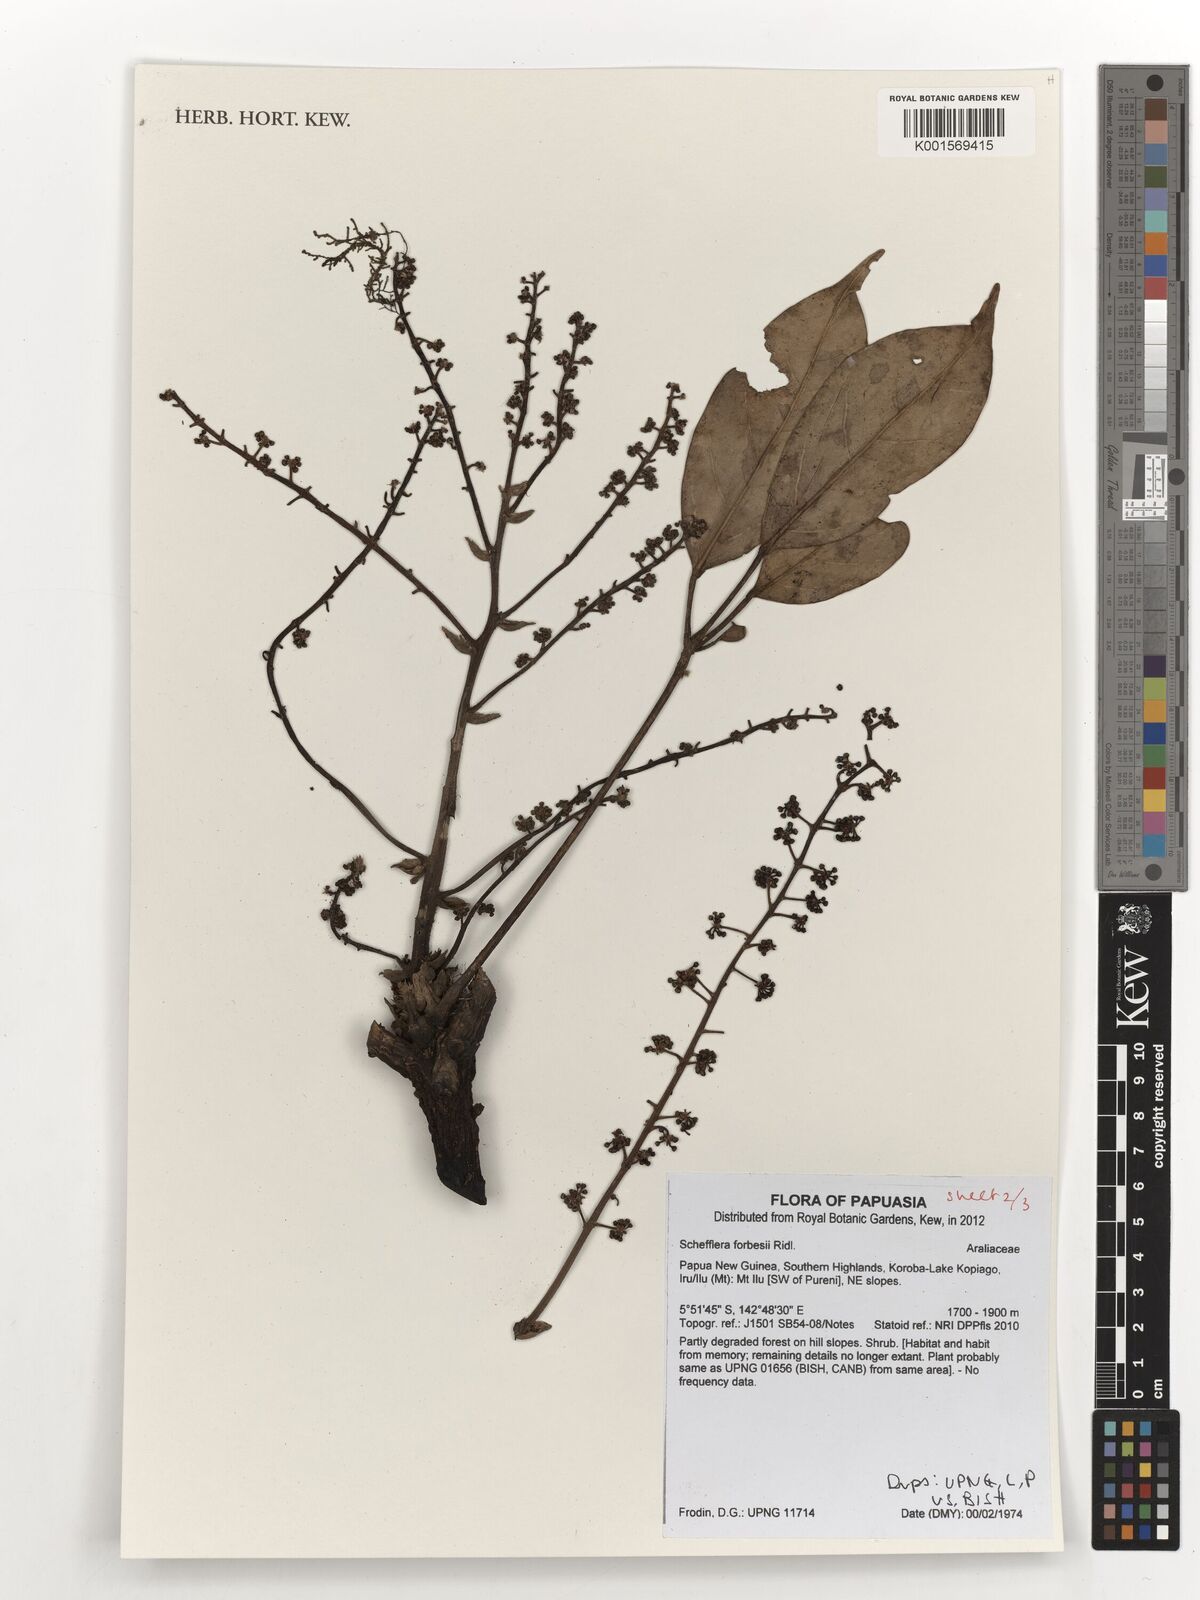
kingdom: Plantae
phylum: Tracheophyta
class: Magnoliopsida
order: Apiales
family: Araliaceae
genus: Heptapleurum
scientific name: Heptapleurum forbesii
